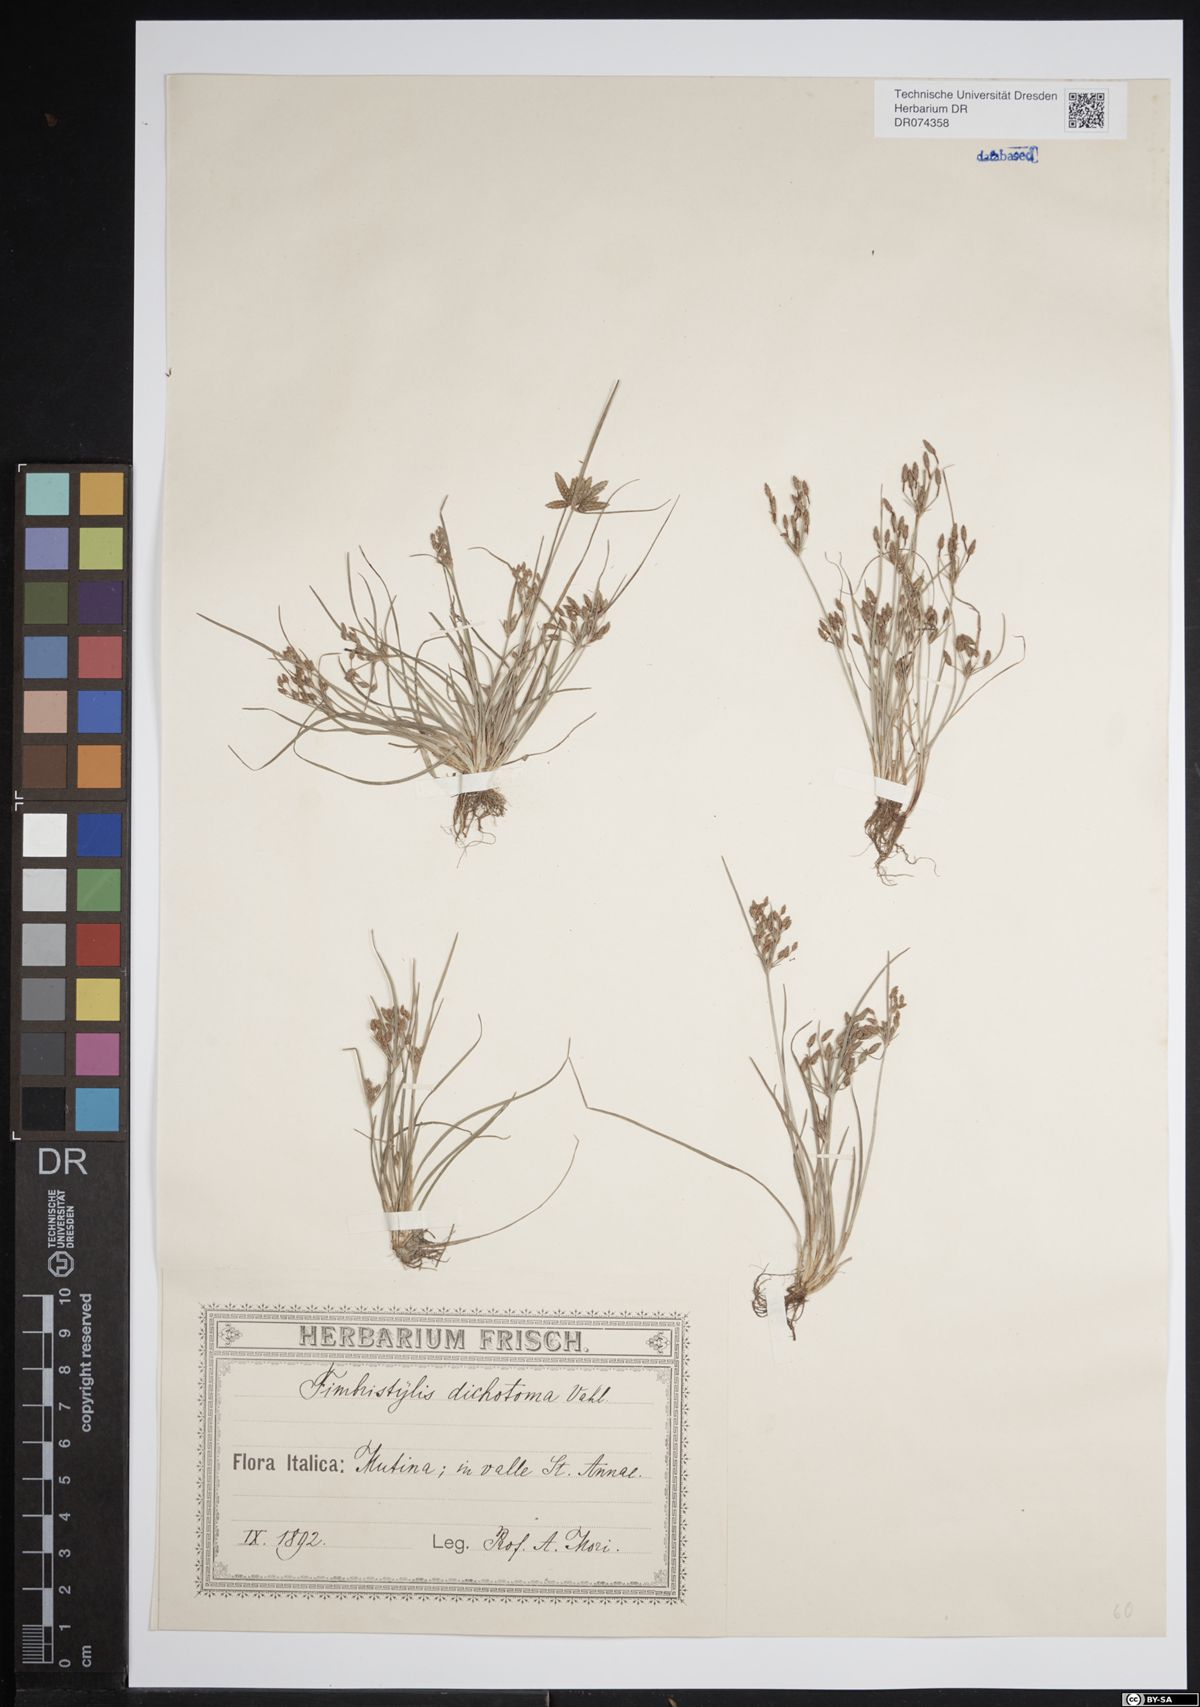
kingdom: Plantae
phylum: Tracheophyta
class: Liliopsida
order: Poales
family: Cyperaceae
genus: Fimbristylis
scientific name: Fimbristylis dichotoma
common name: Forked fimbry
